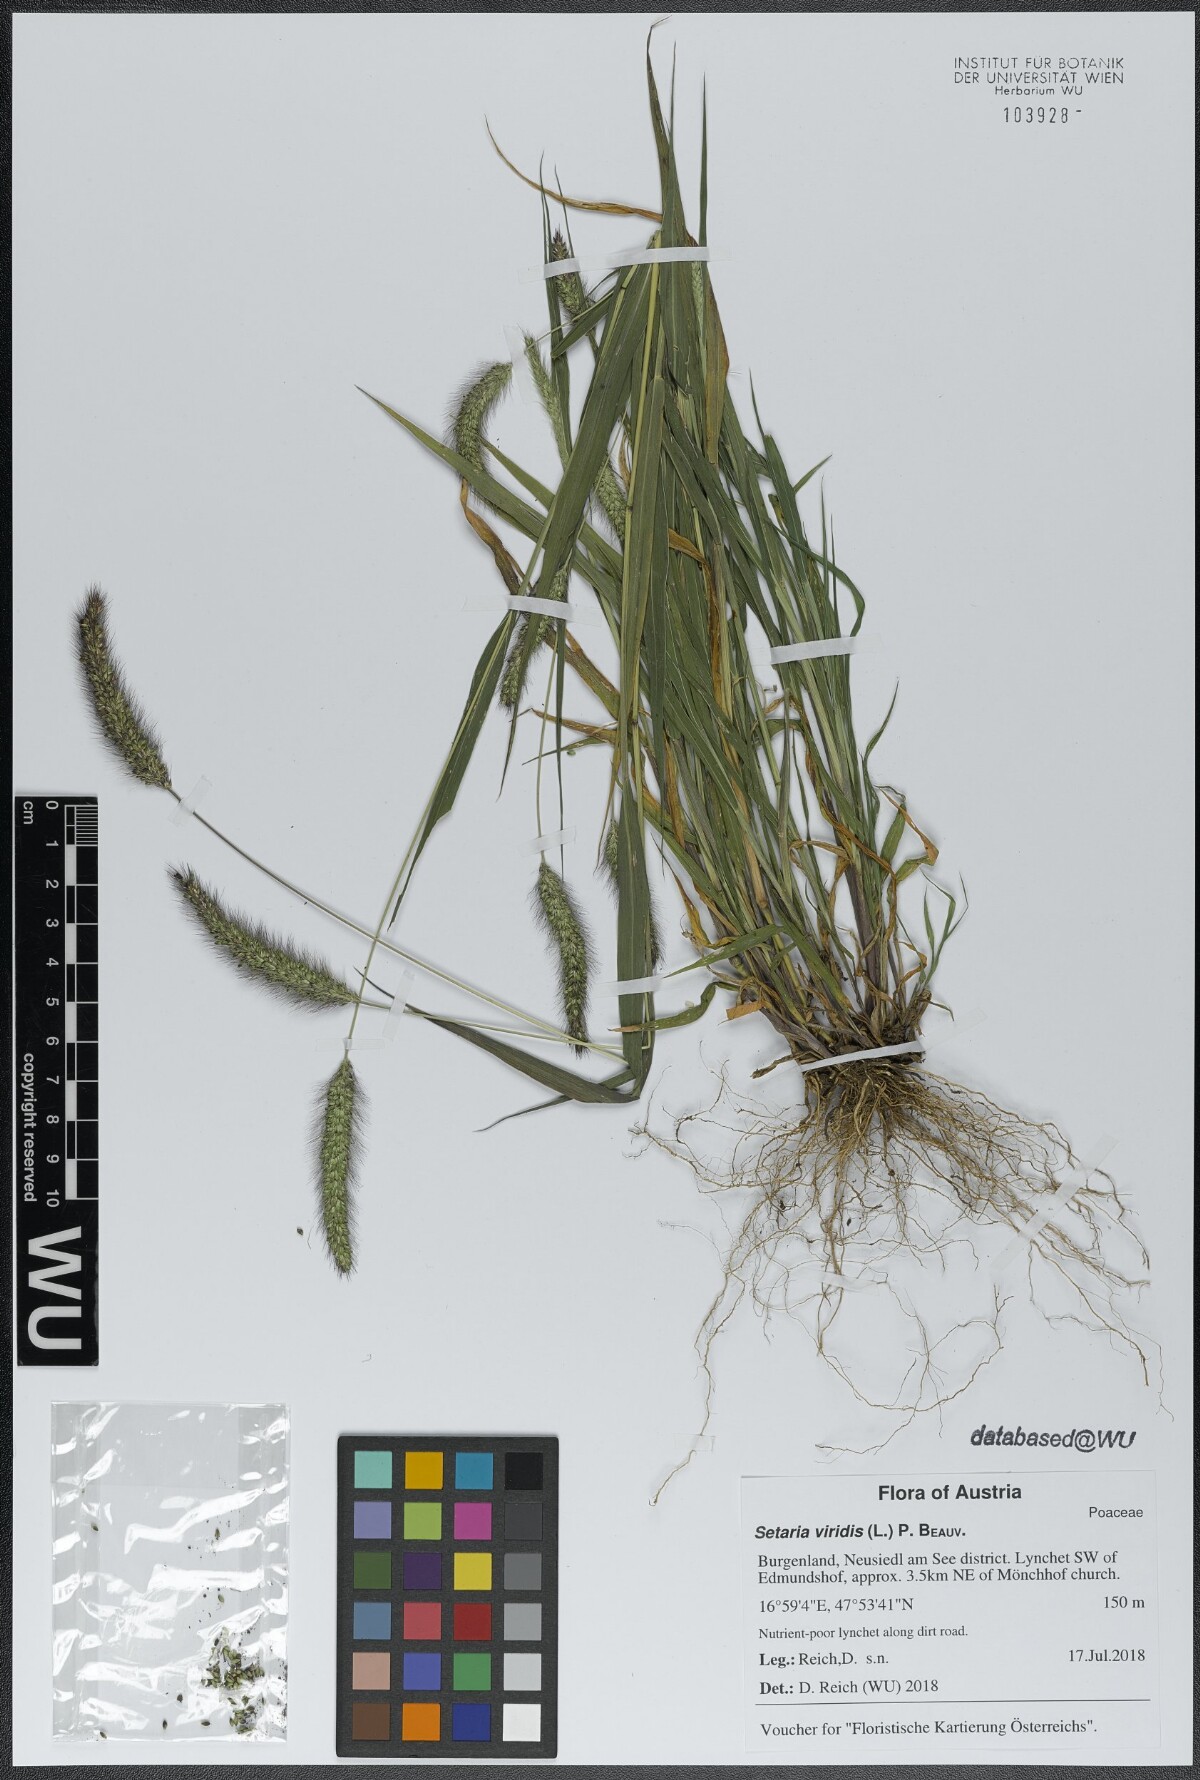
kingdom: Plantae
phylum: Tracheophyta
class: Liliopsida
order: Poales
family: Poaceae
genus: Setaria
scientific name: Setaria viridis
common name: Green bristlegrass
